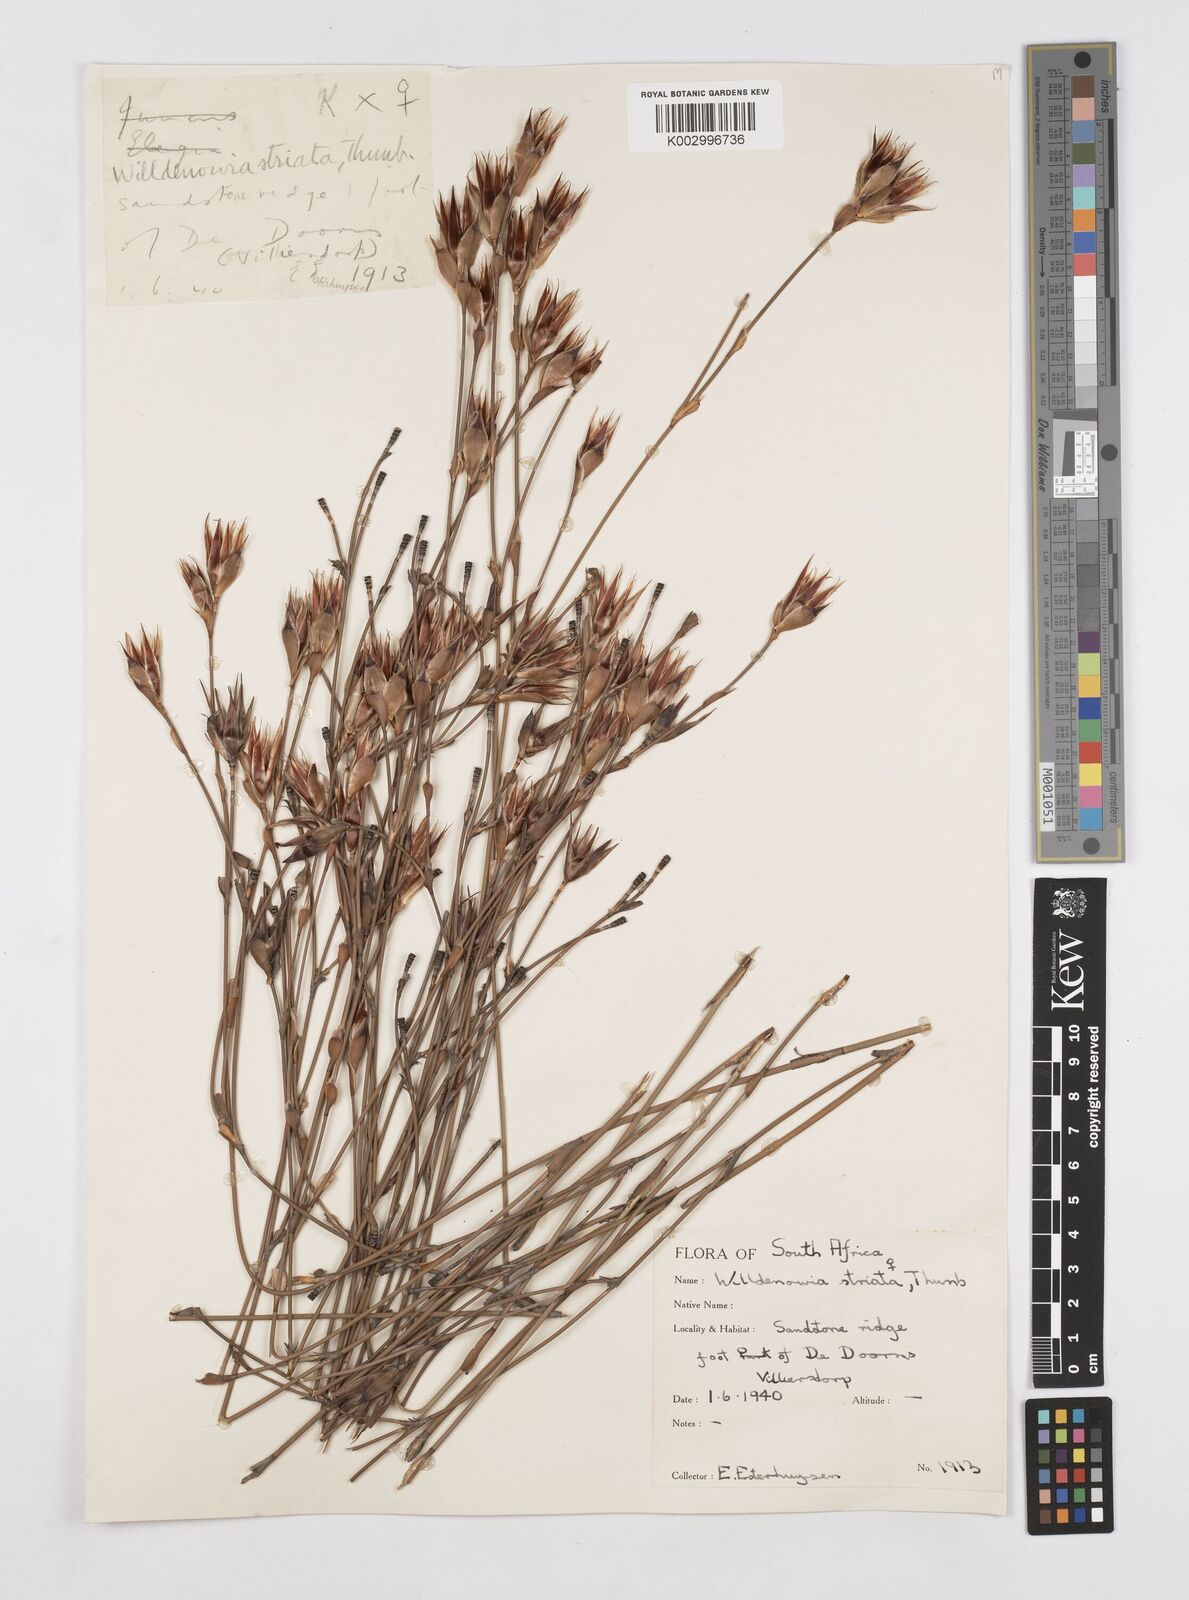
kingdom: Plantae
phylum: Tracheophyta
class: Liliopsida
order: Poales
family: Restionaceae
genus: Willdenowia
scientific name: Willdenowia incurvata
